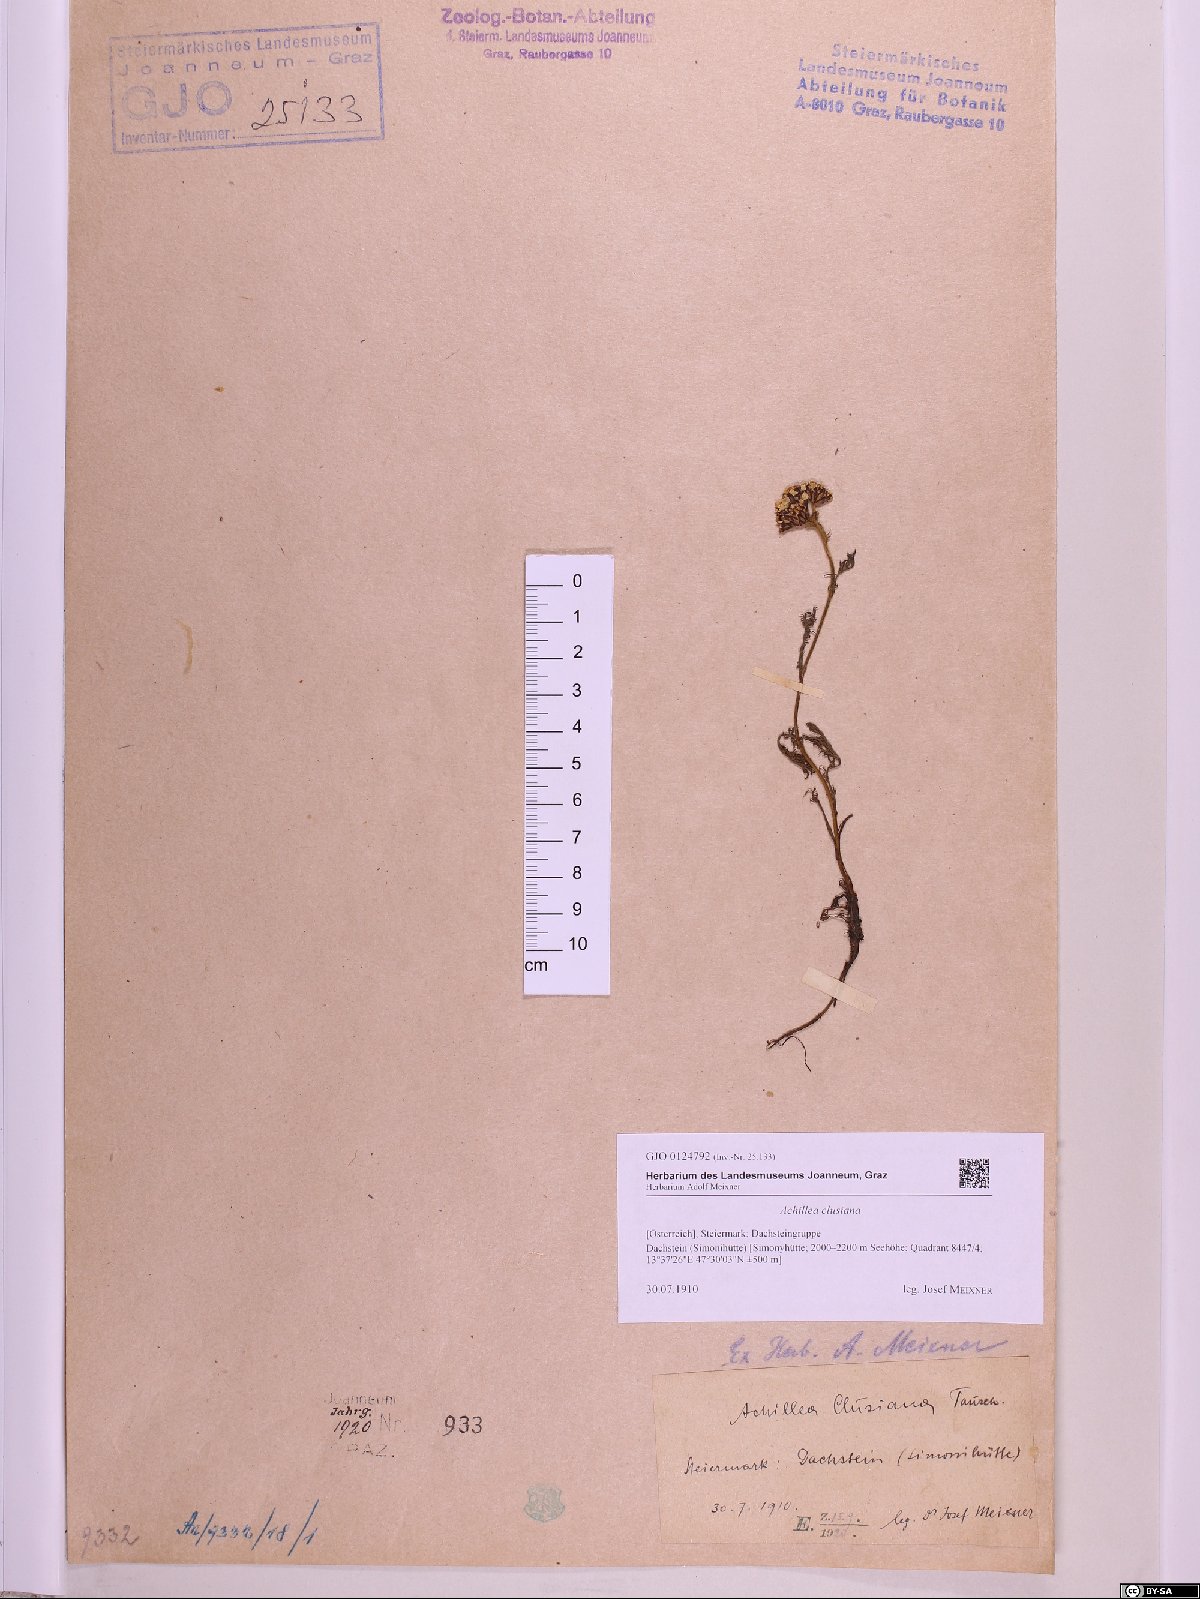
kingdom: Plantae
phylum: Tracheophyta
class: Magnoliopsida
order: Asterales
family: Asteraceae
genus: Achillea
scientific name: Achillea clusiana
